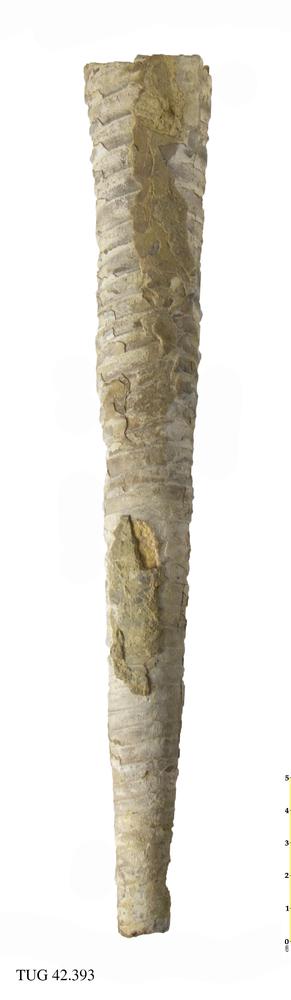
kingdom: Animalia
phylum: Mollusca
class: Cephalopoda
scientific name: Cephalopoda
